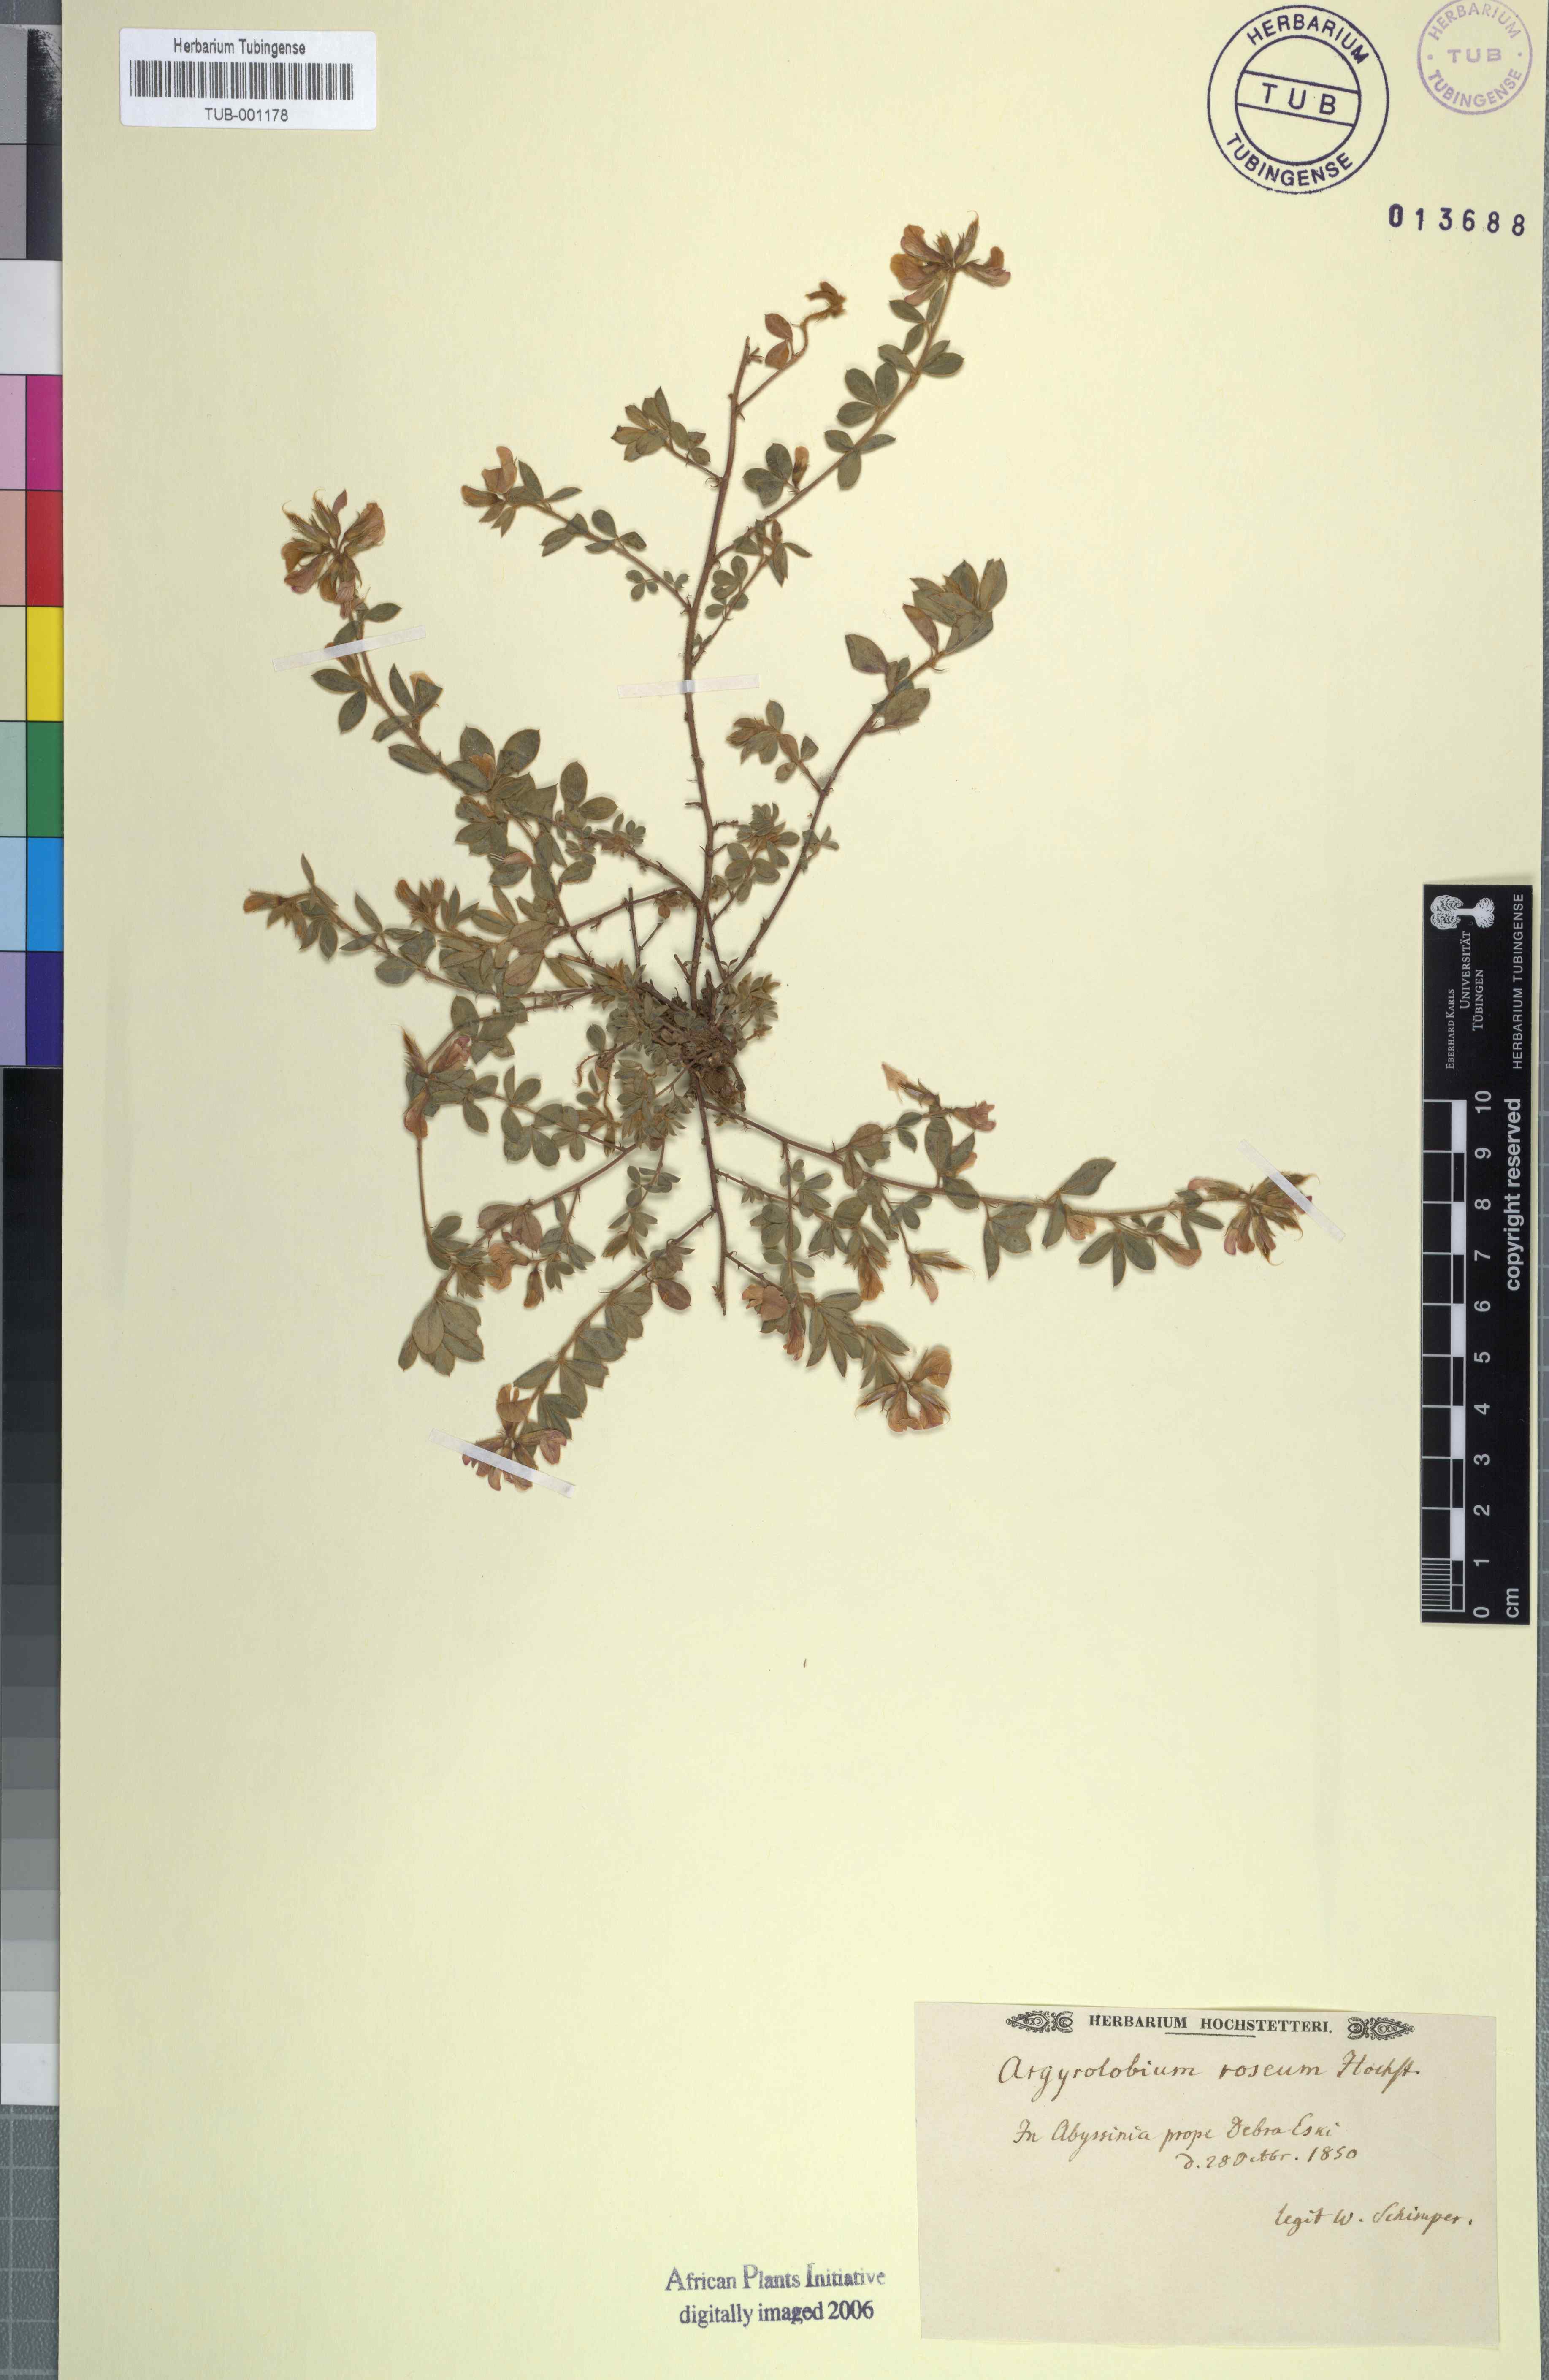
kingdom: Plantae
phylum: Tracheophyta
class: Magnoliopsida
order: Fabales
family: Fabaceae
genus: Argyrolobium
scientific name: Argyrolobium roseum
